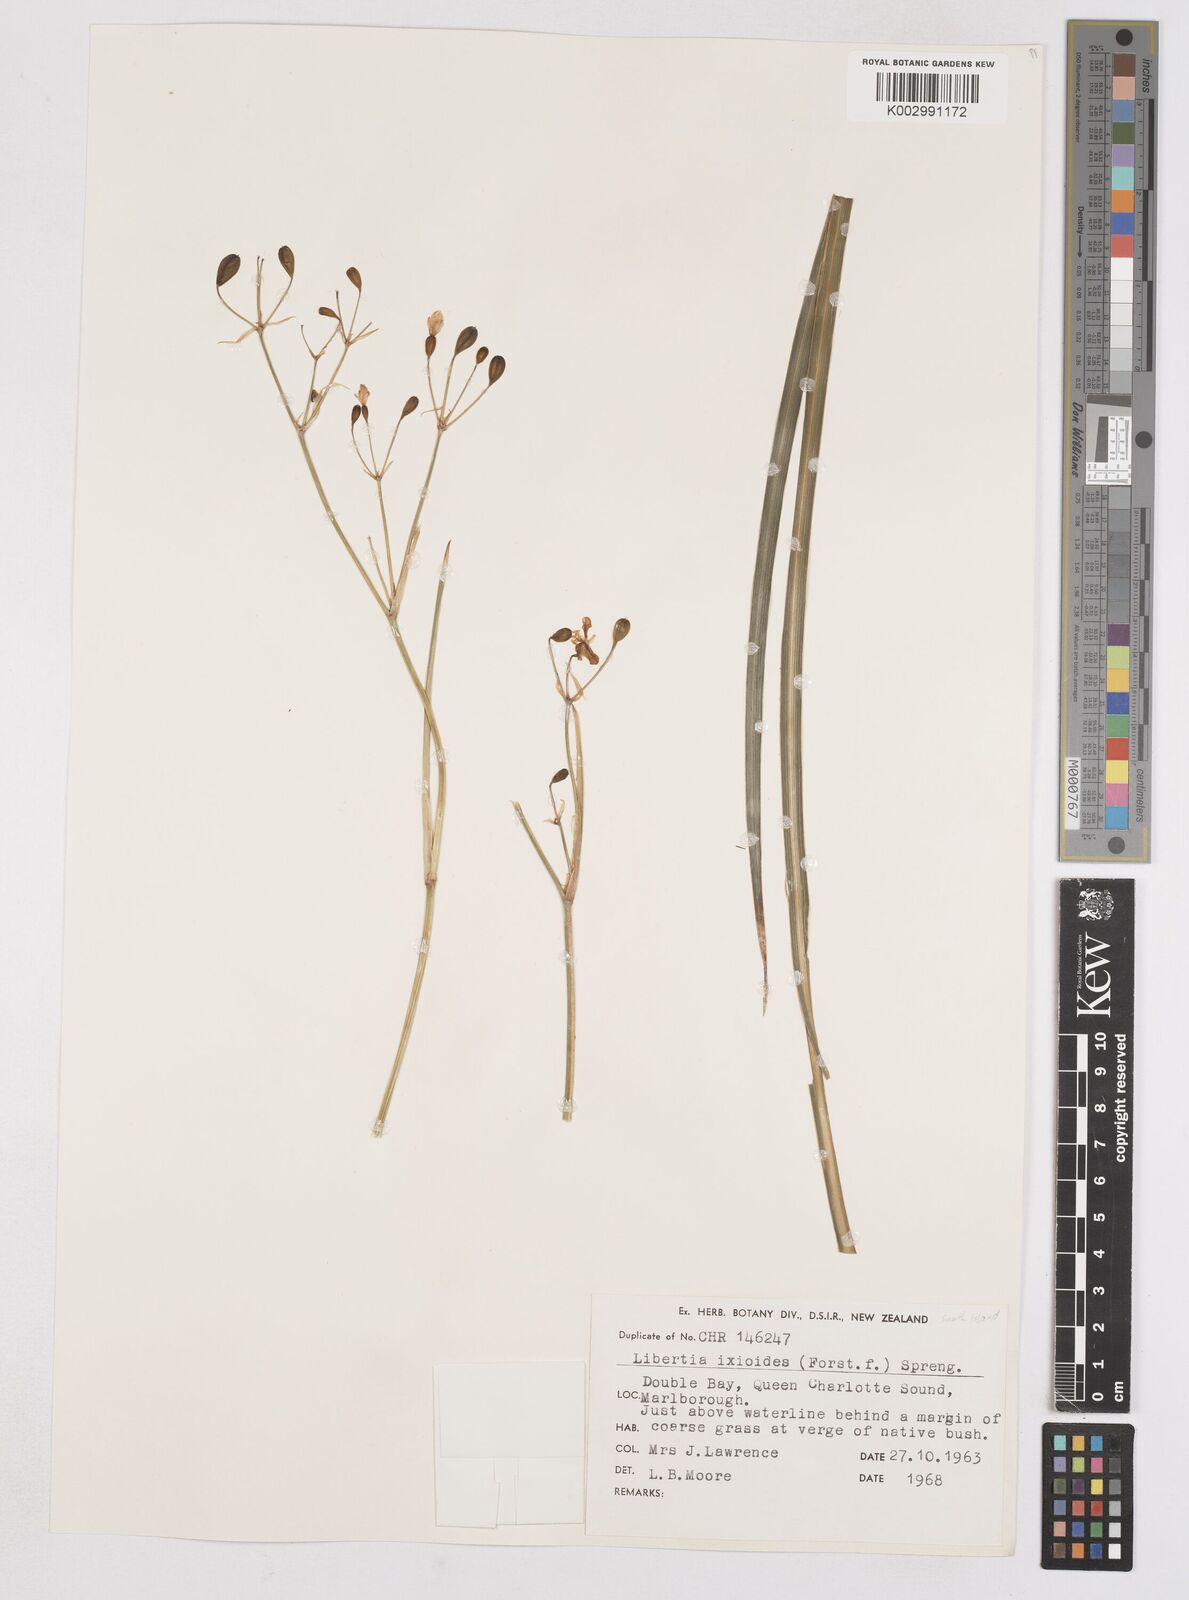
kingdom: Plantae
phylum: Tracheophyta
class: Liliopsida
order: Asparagales
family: Iridaceae
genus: Libertia
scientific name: Libertia ixioides
